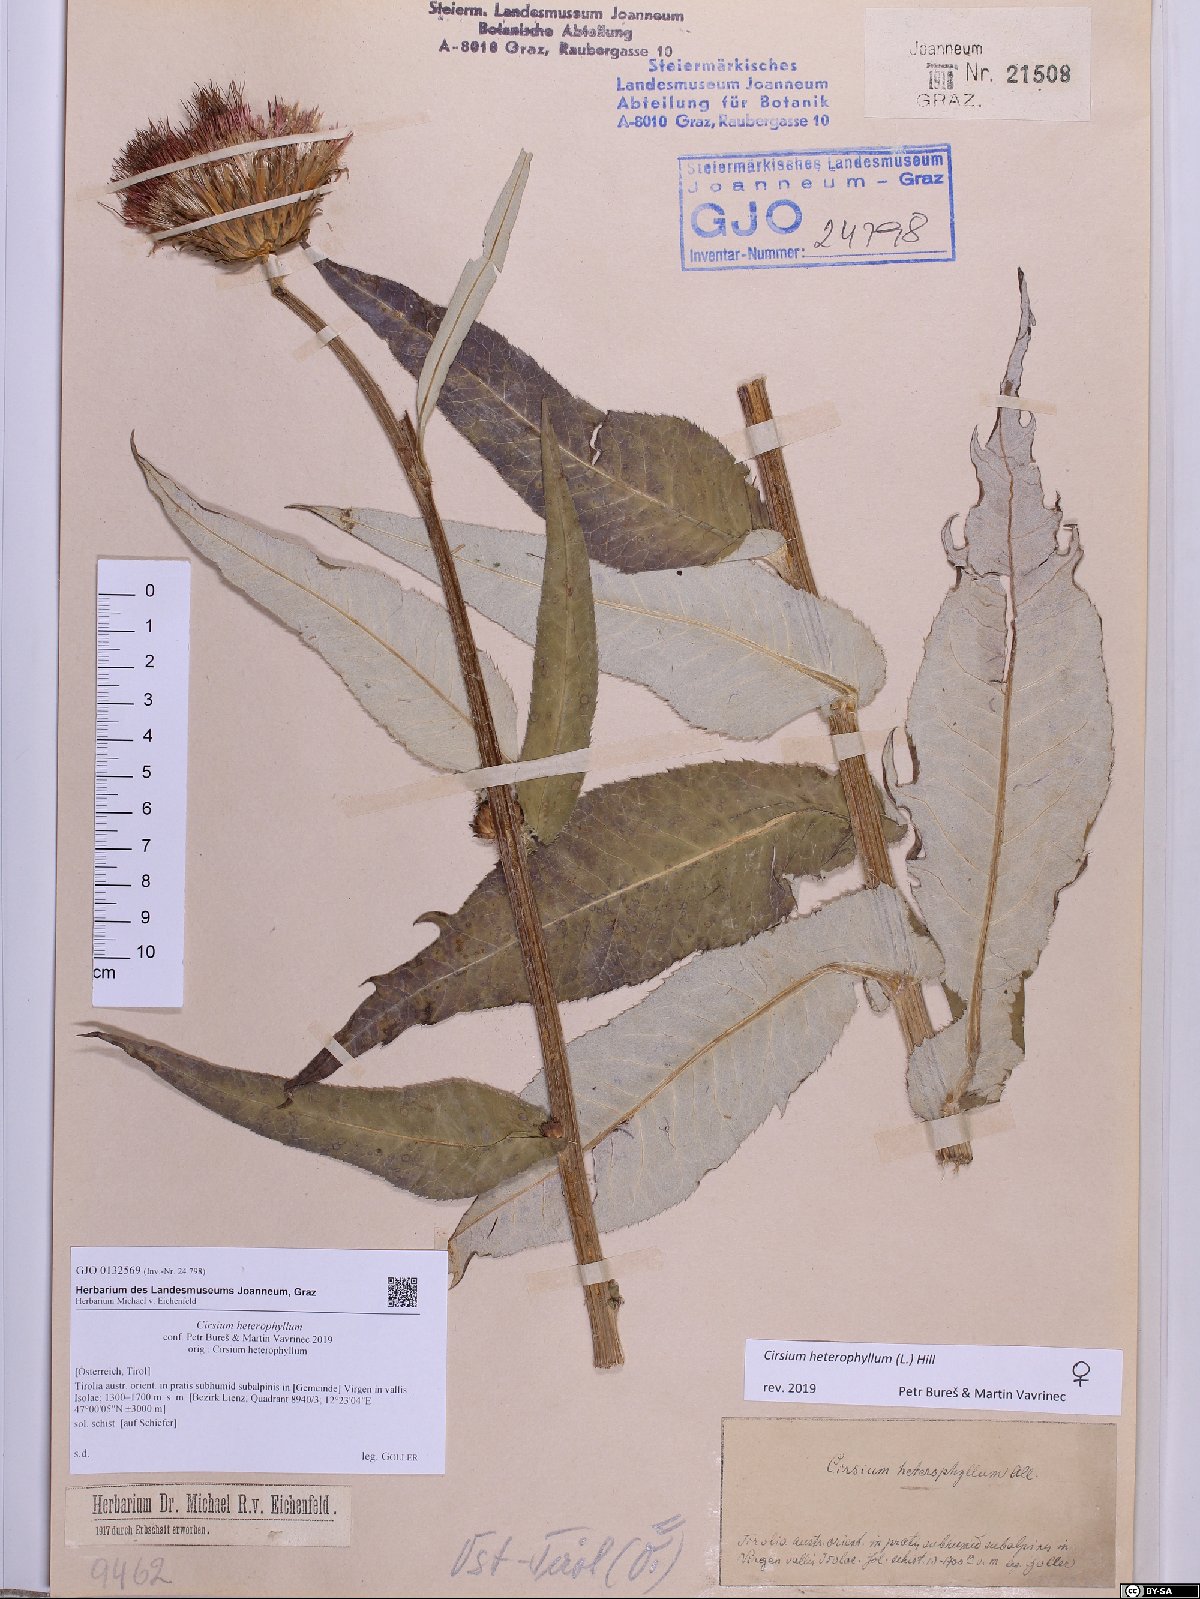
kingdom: Plantae
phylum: Tracheophyta
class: Magnoliopsida
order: Asterales
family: Asteraceae
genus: Cirsium
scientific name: Cirsium heterophyllum
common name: Melancholy thistle
